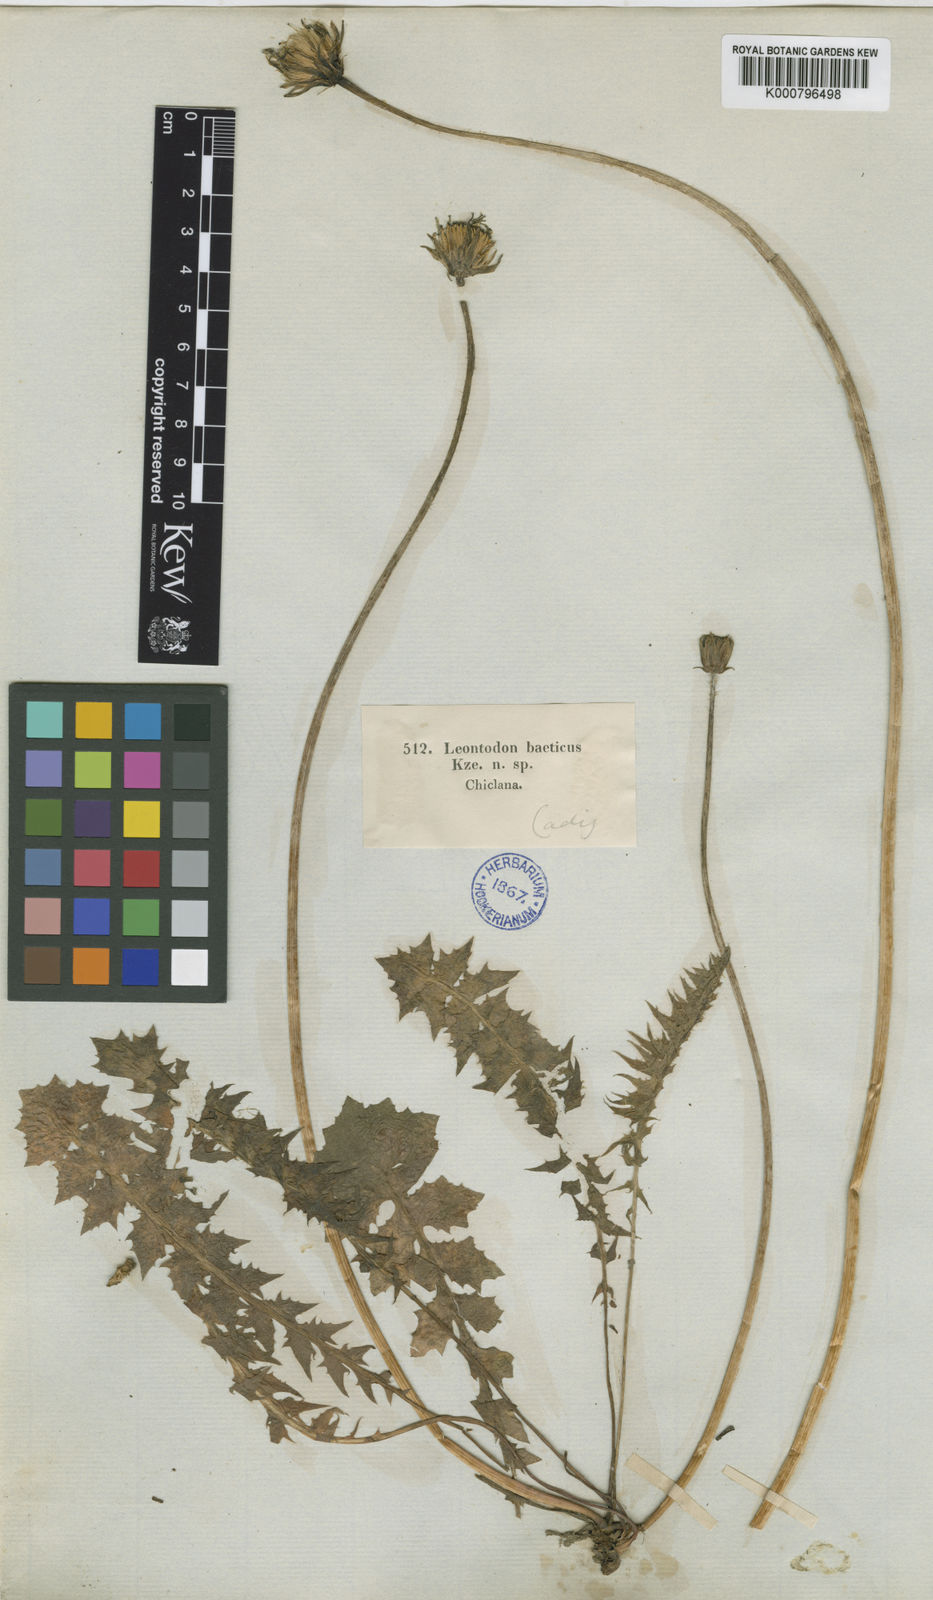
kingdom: Plantae
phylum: Tracheophyta
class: Magnoliopsida
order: Asterales
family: Asteraceae
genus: Leontodon
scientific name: Leontodon
